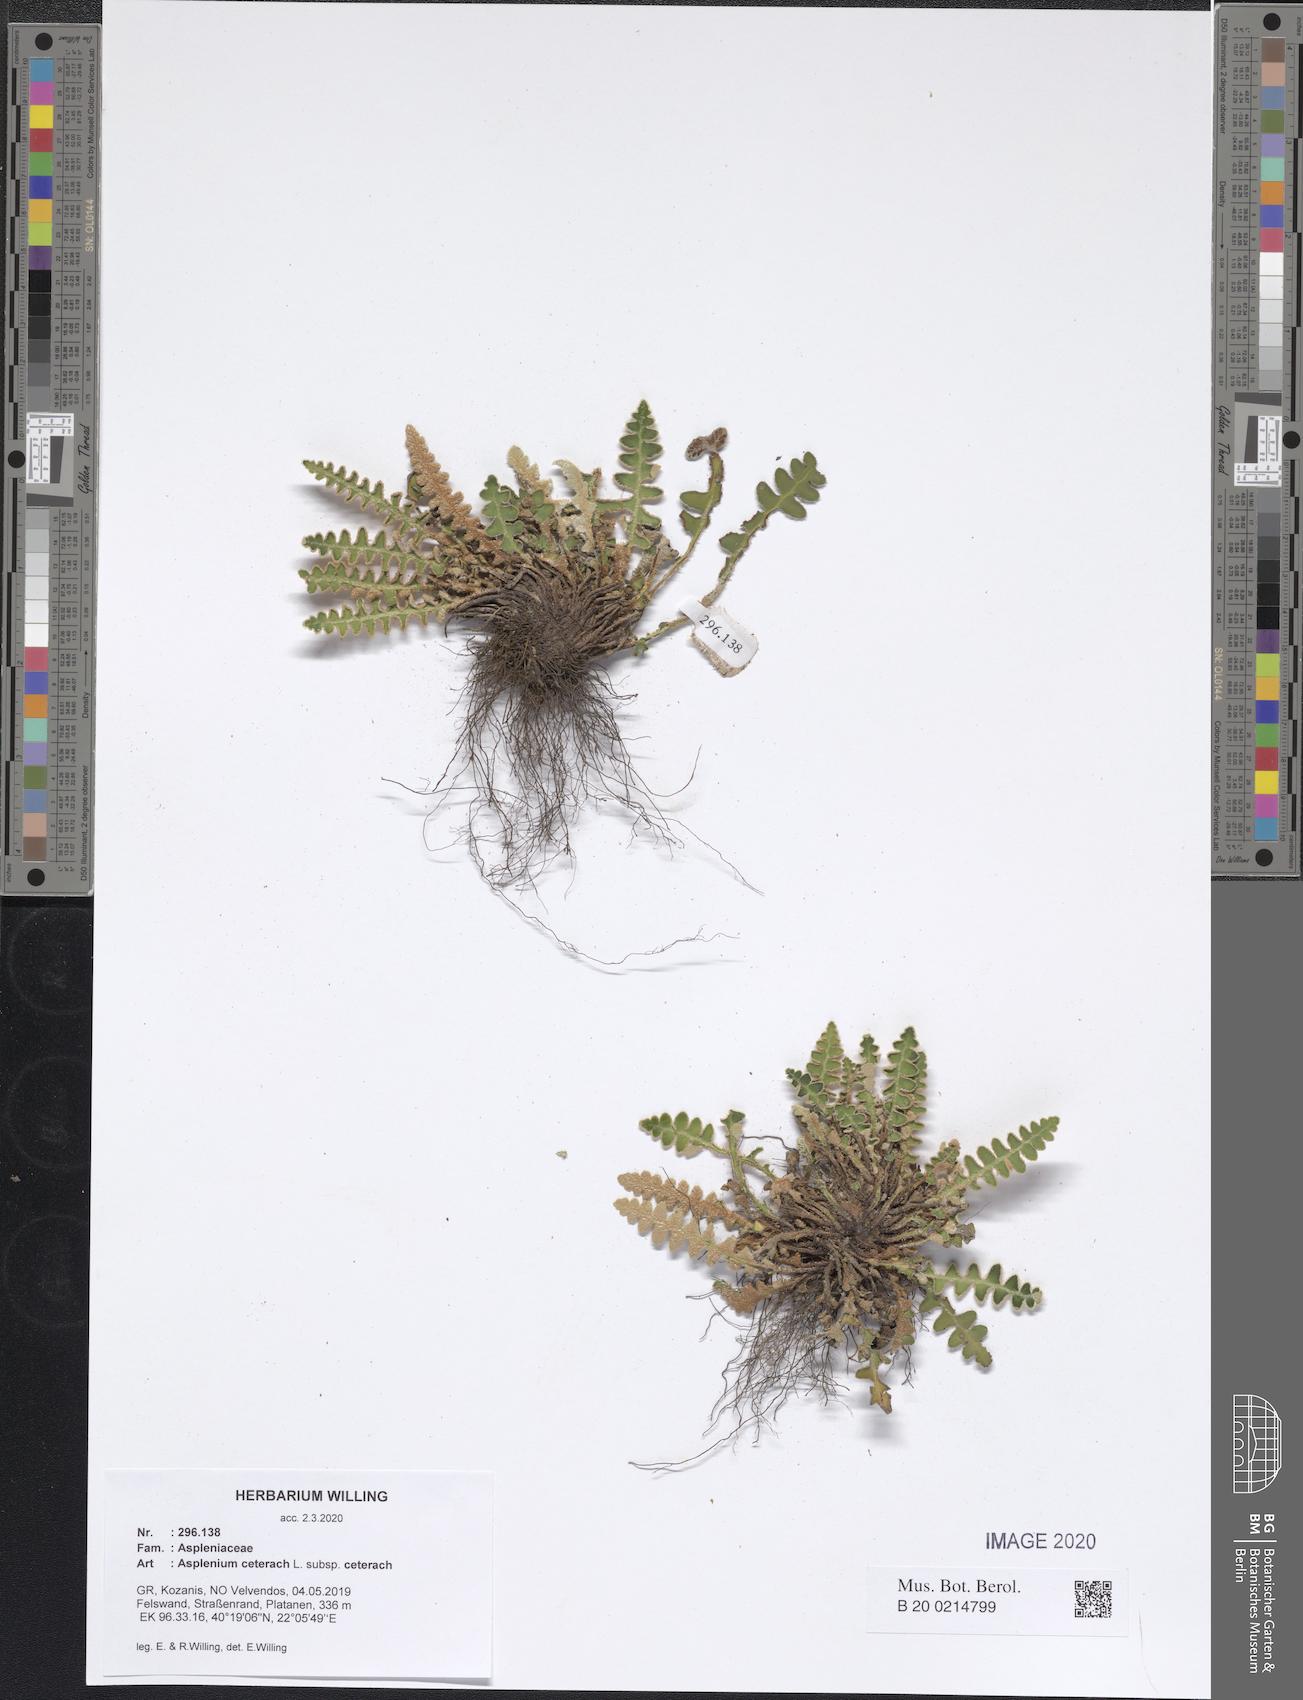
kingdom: Plantae
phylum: Tracheophyta
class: Polypodiopsida
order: Polypodiales
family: Aspleniaceae
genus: Asplenium
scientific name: Asplenium ceterach
